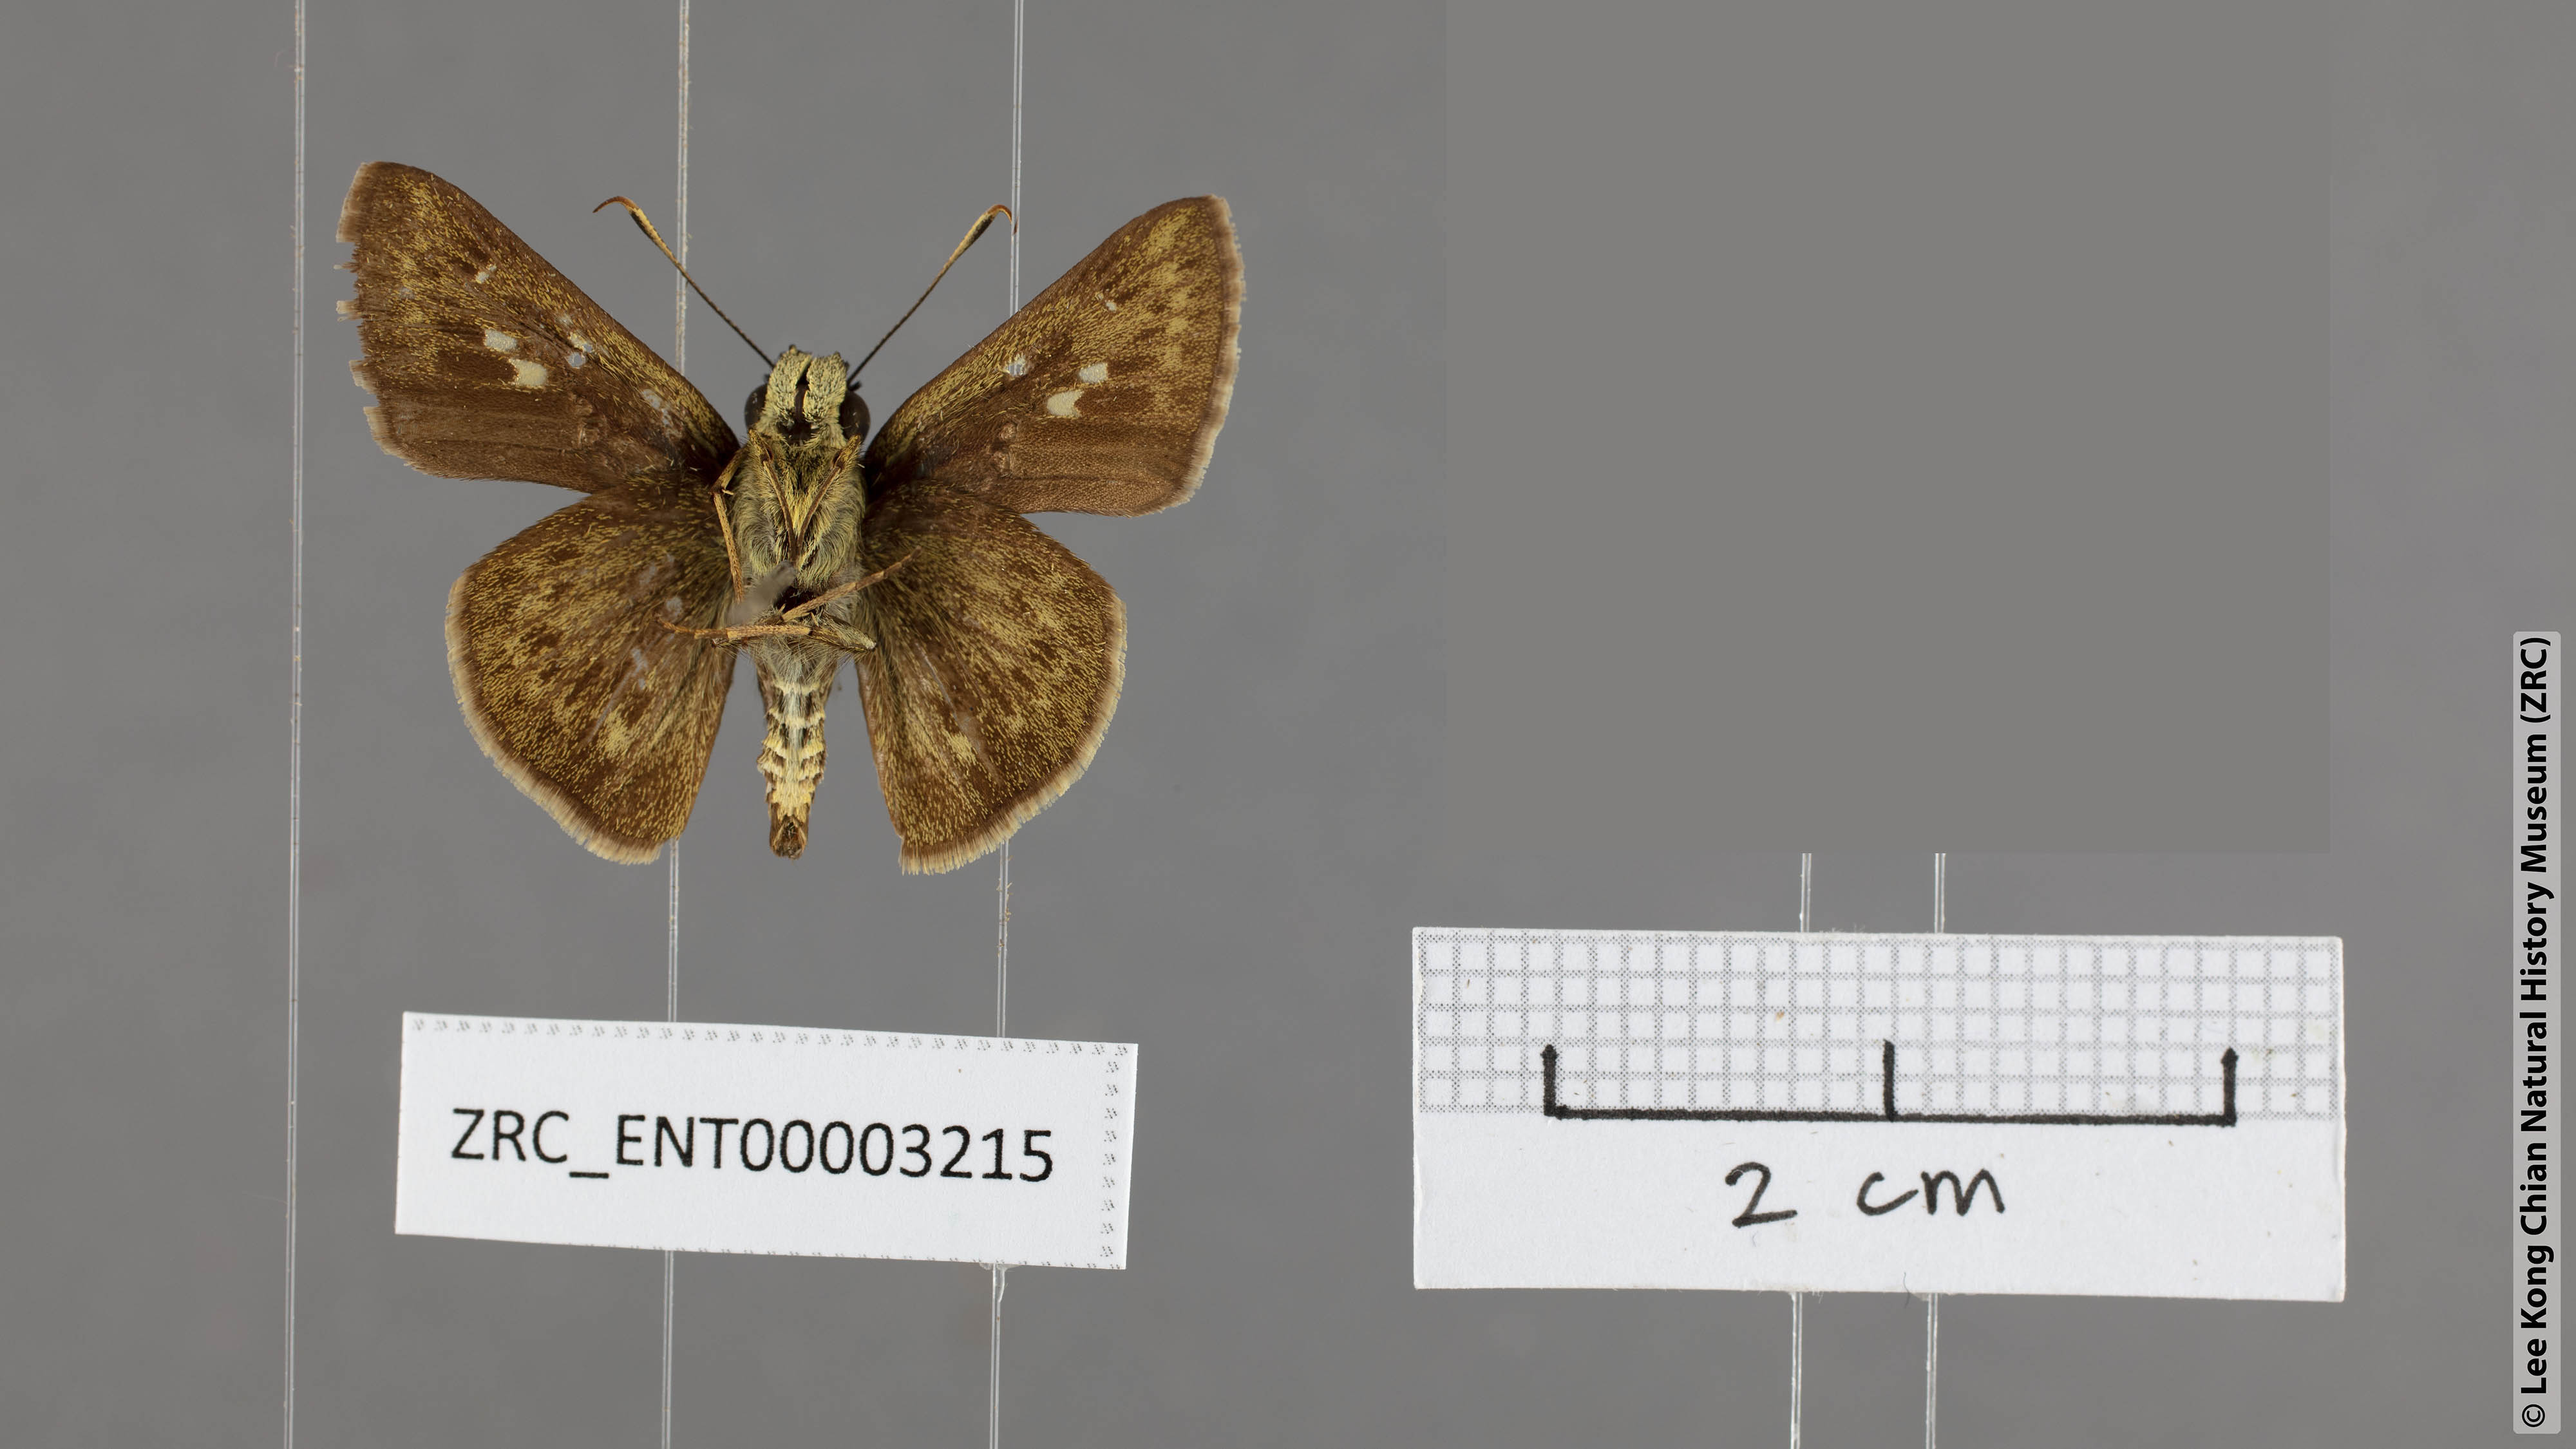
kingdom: Animalia
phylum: Arthropoda
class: Insecta
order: Lepidoptera
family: Hesperiidae
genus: Halpe
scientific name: Halpe auriferus
